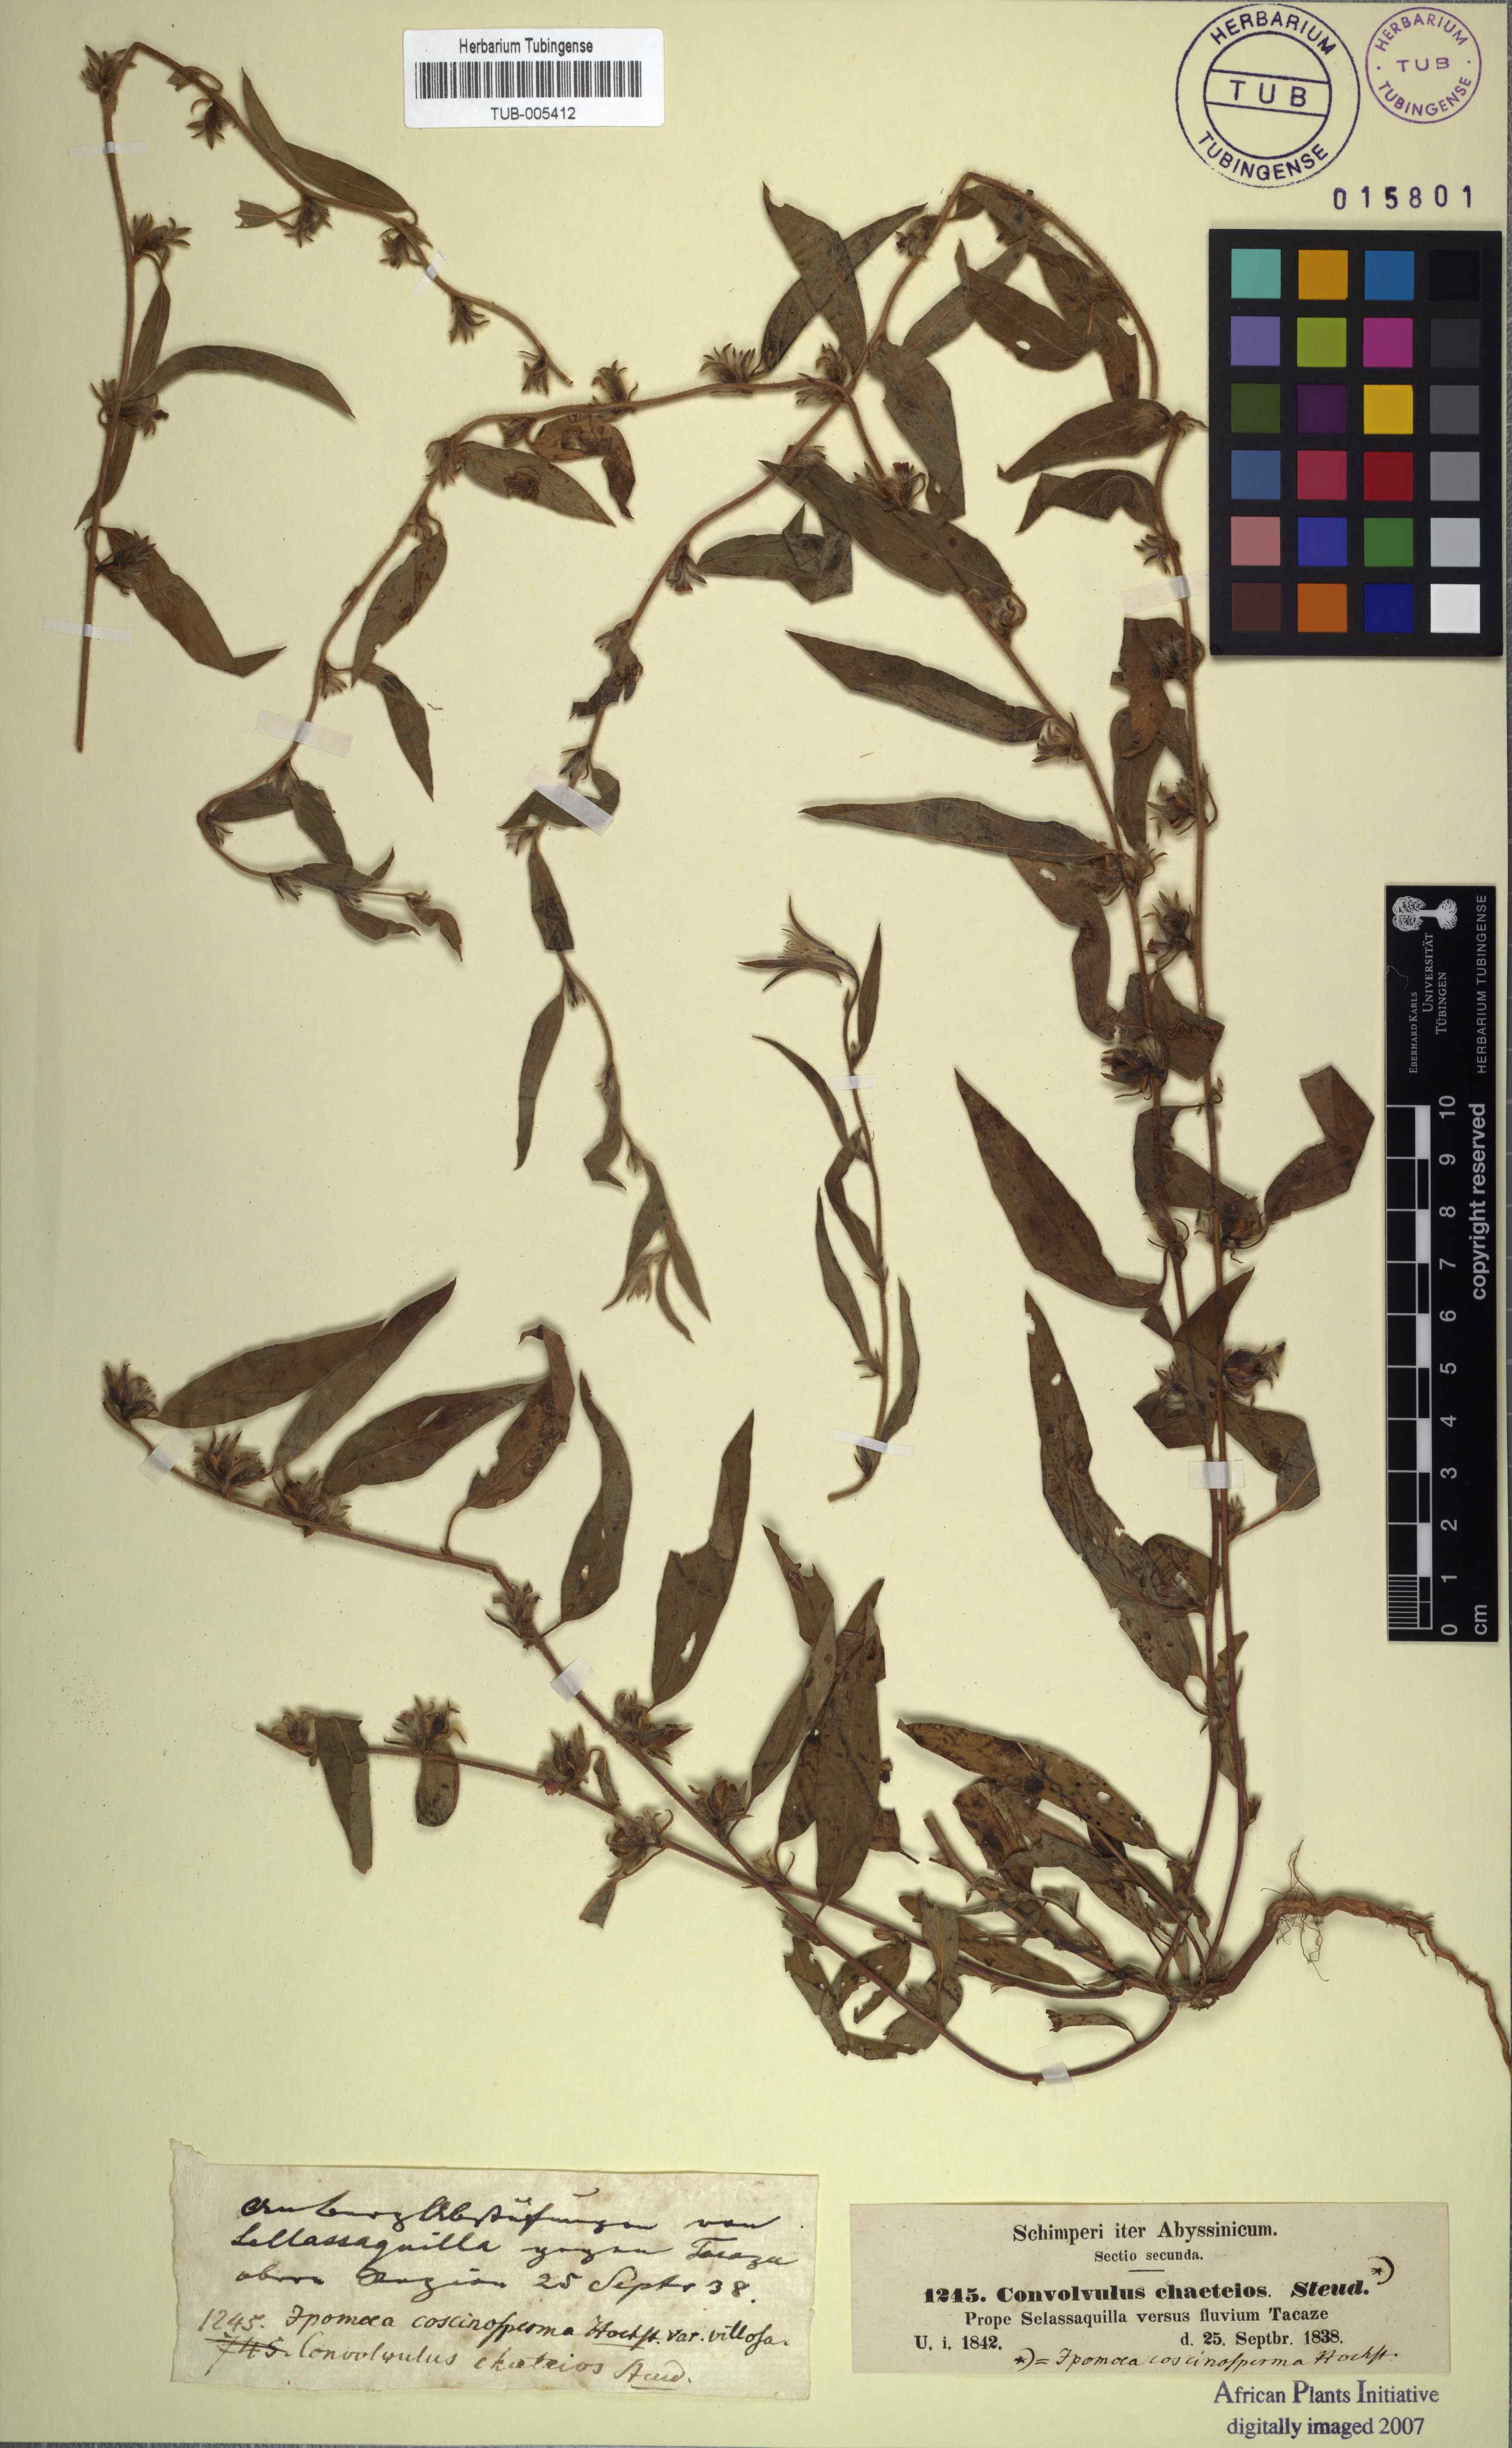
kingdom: Plantae
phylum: Tracheophyta
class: Magnoliopsida
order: Solanales
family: Convolvulaceae
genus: Convolvulus
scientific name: Convolvulus
